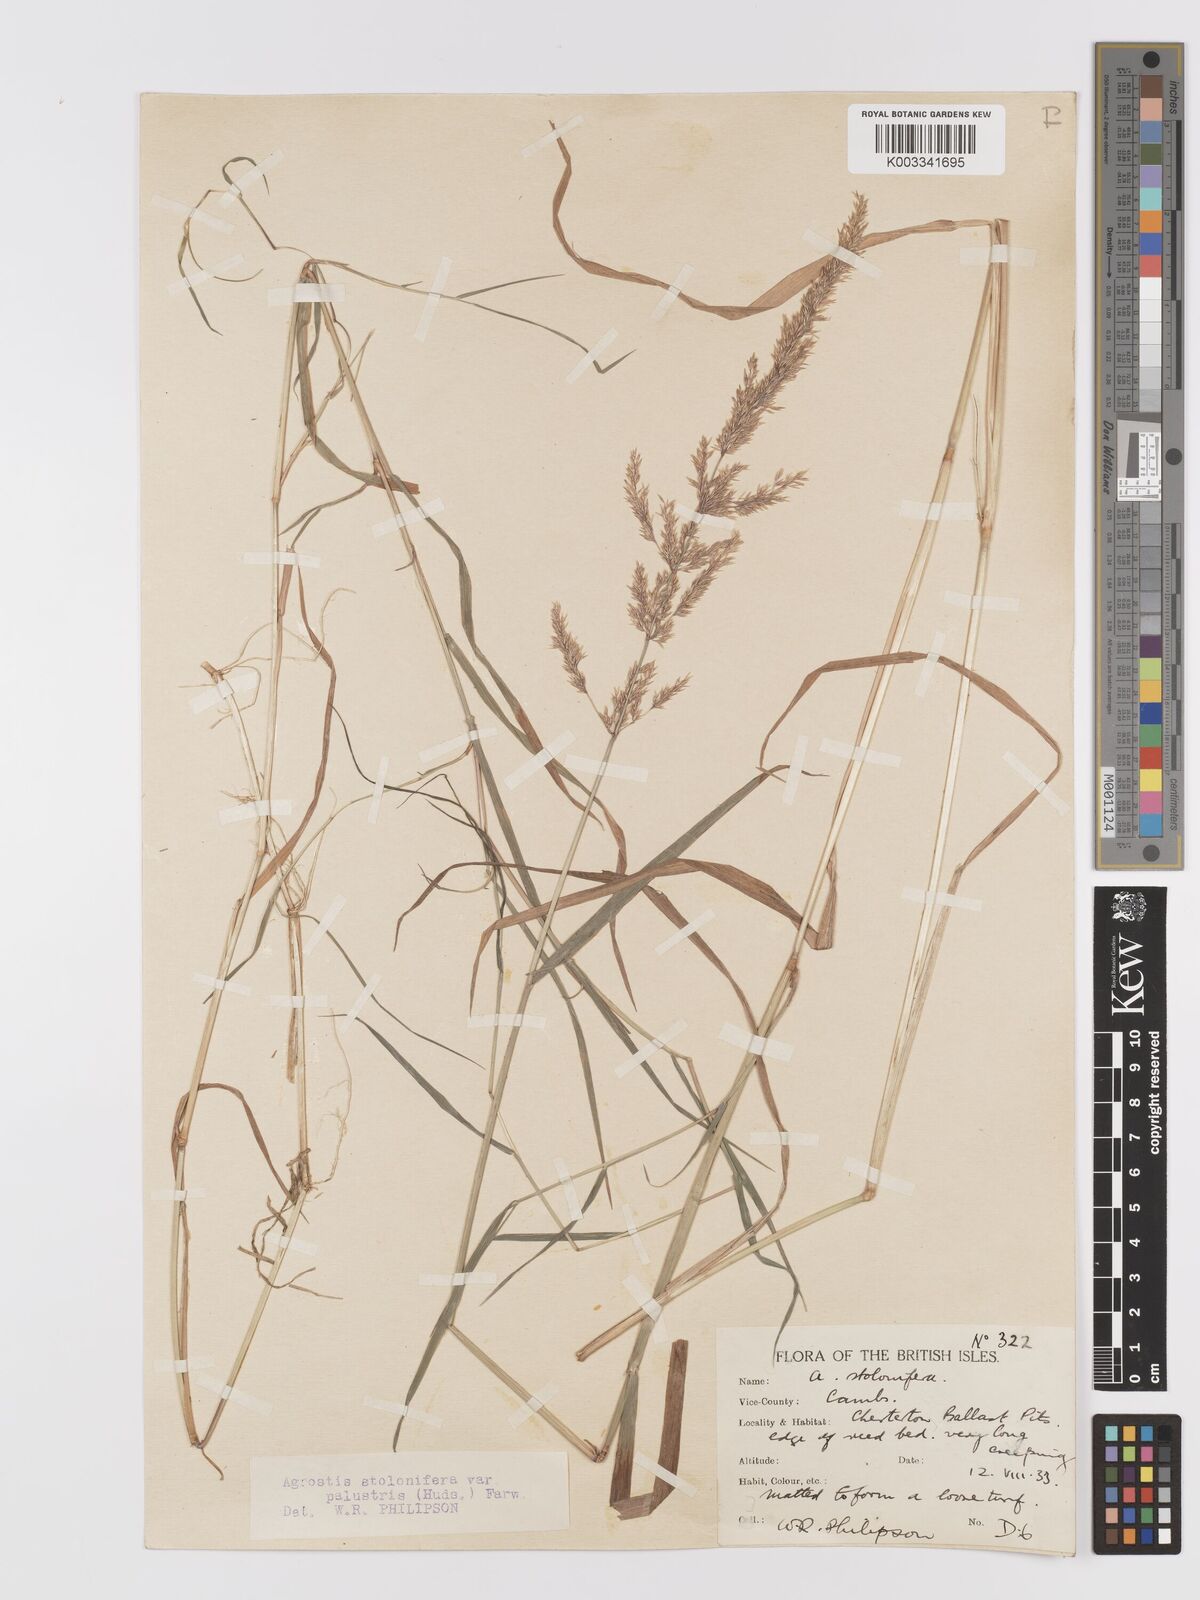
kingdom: Plantae
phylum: Tracheophyta
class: Liliopsida
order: Poales
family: Poaceae
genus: Agrostis
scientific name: Agrostis stolonifera
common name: Creeping bentgrass
